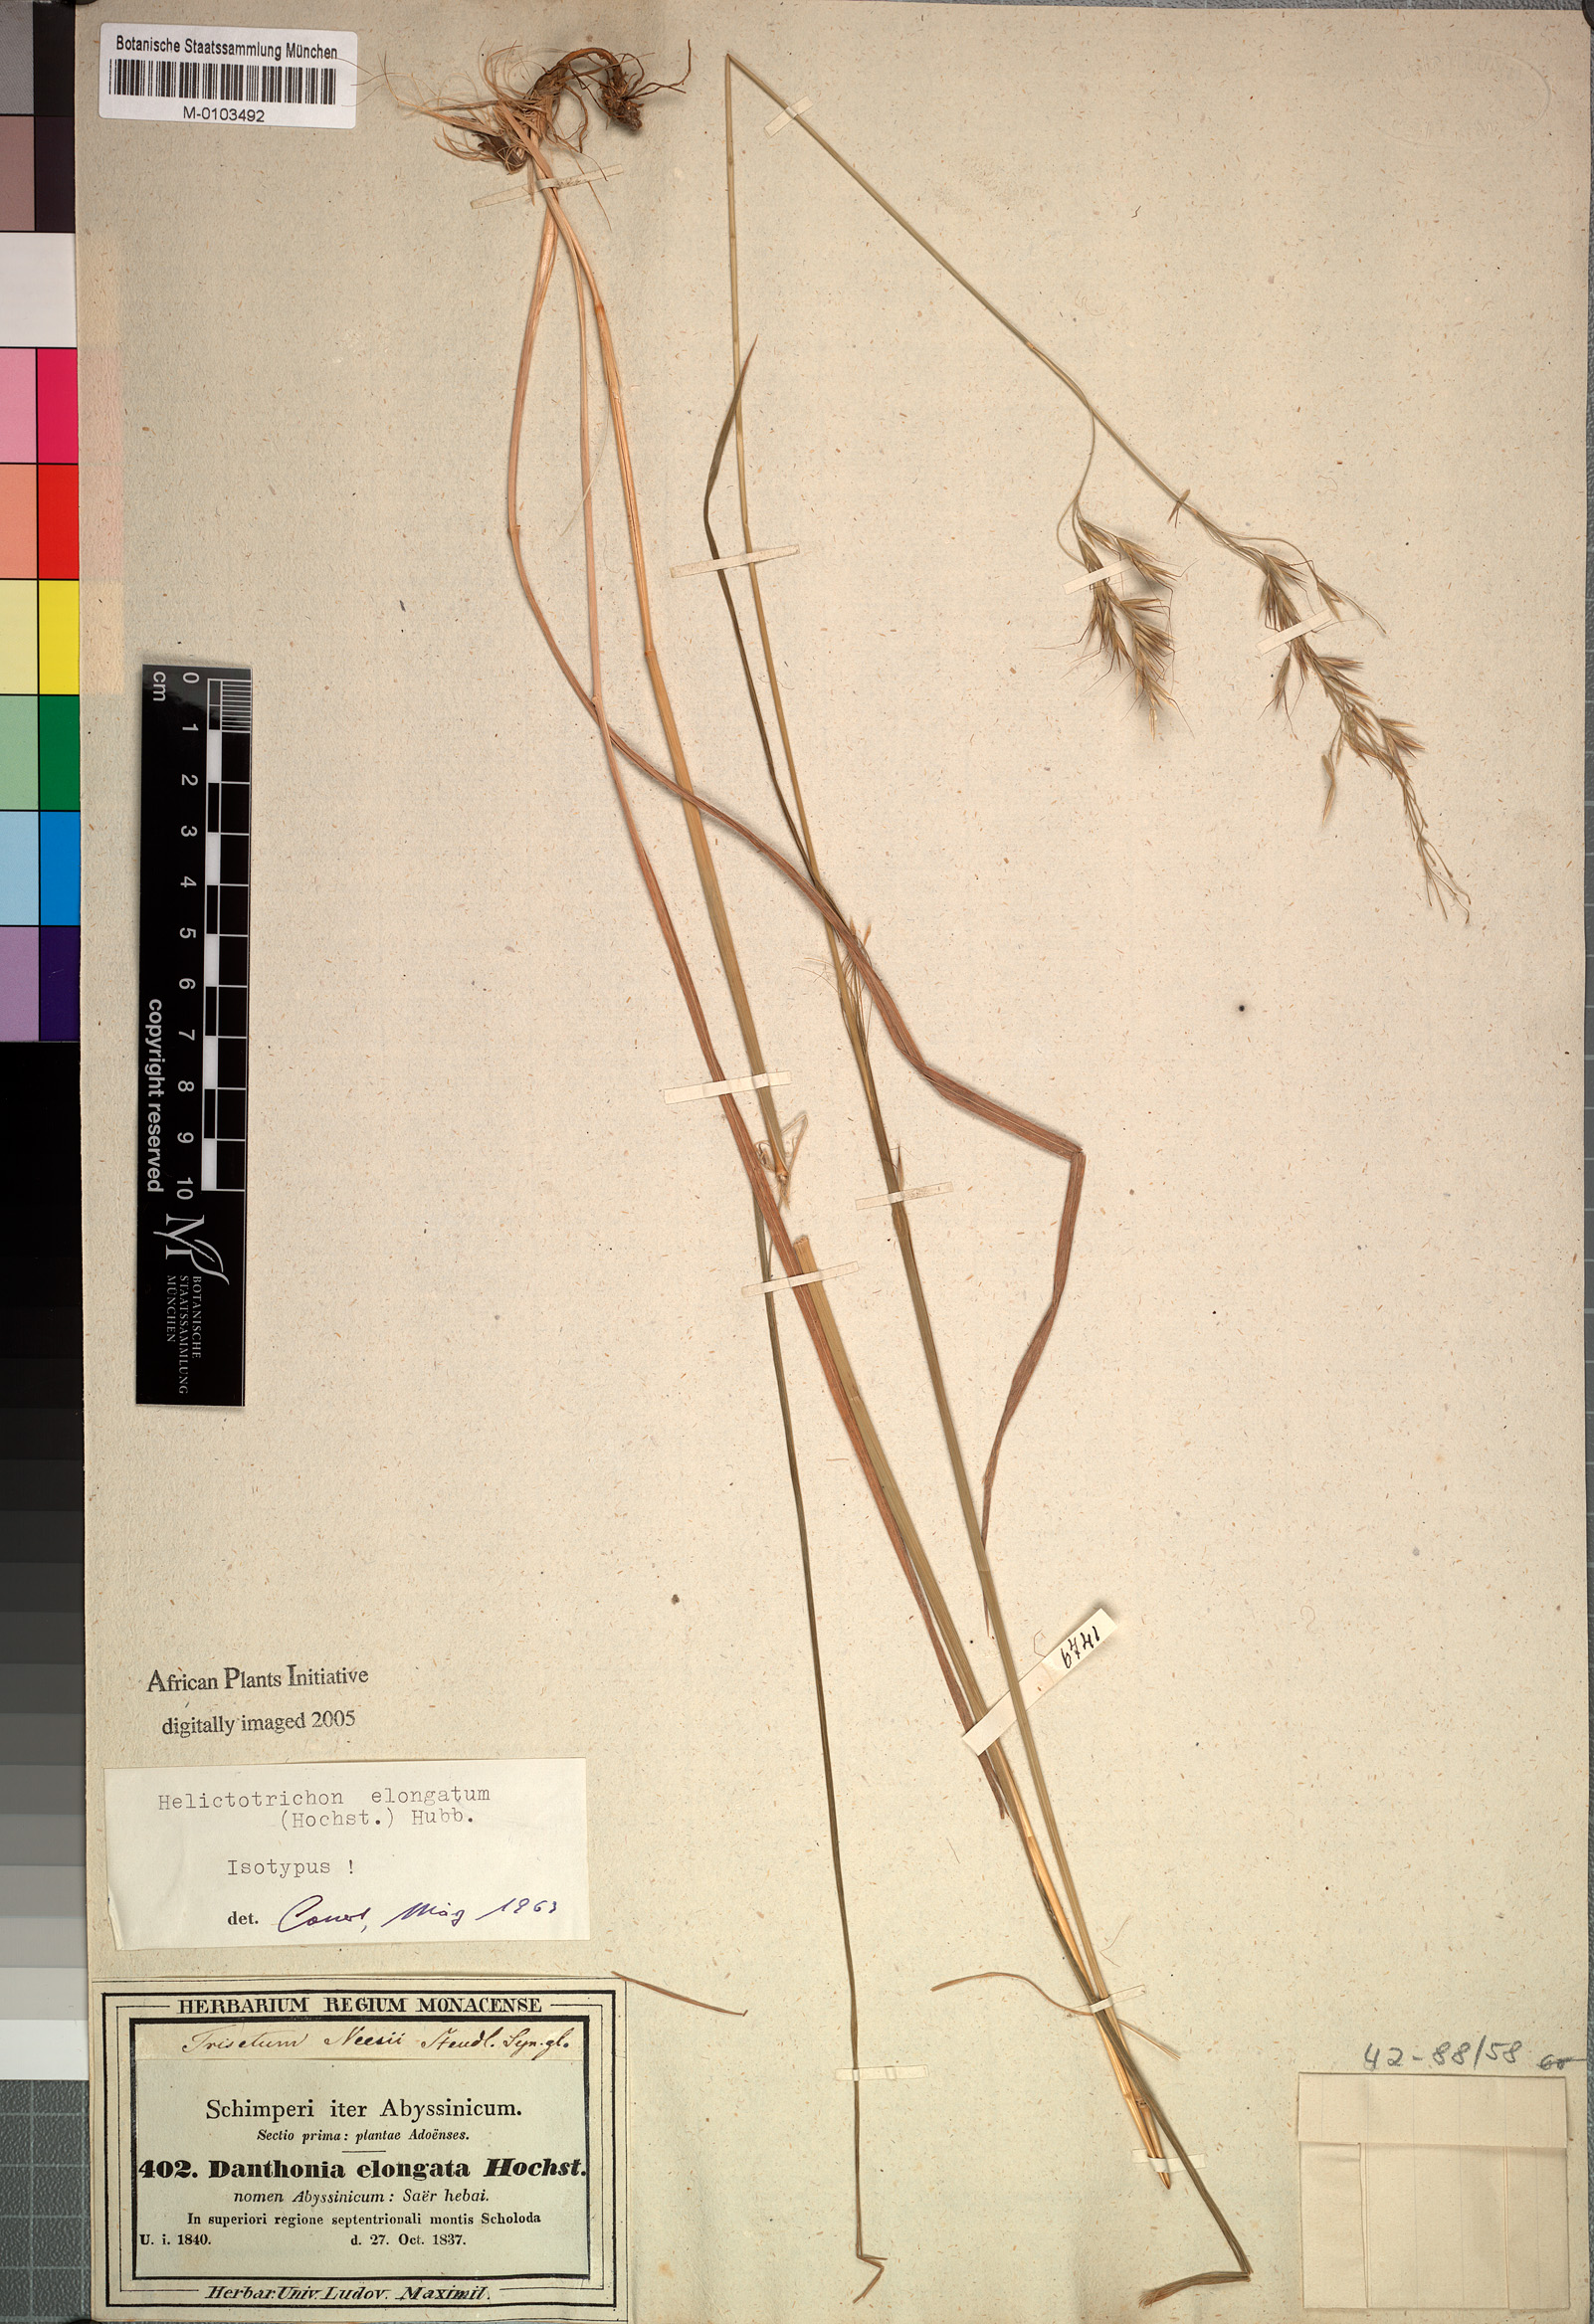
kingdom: Plantae
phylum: Tracheophyta
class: Liliopsida
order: Poales
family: Poaceae
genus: Trisetopsis
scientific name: Trisetopsis elongata
